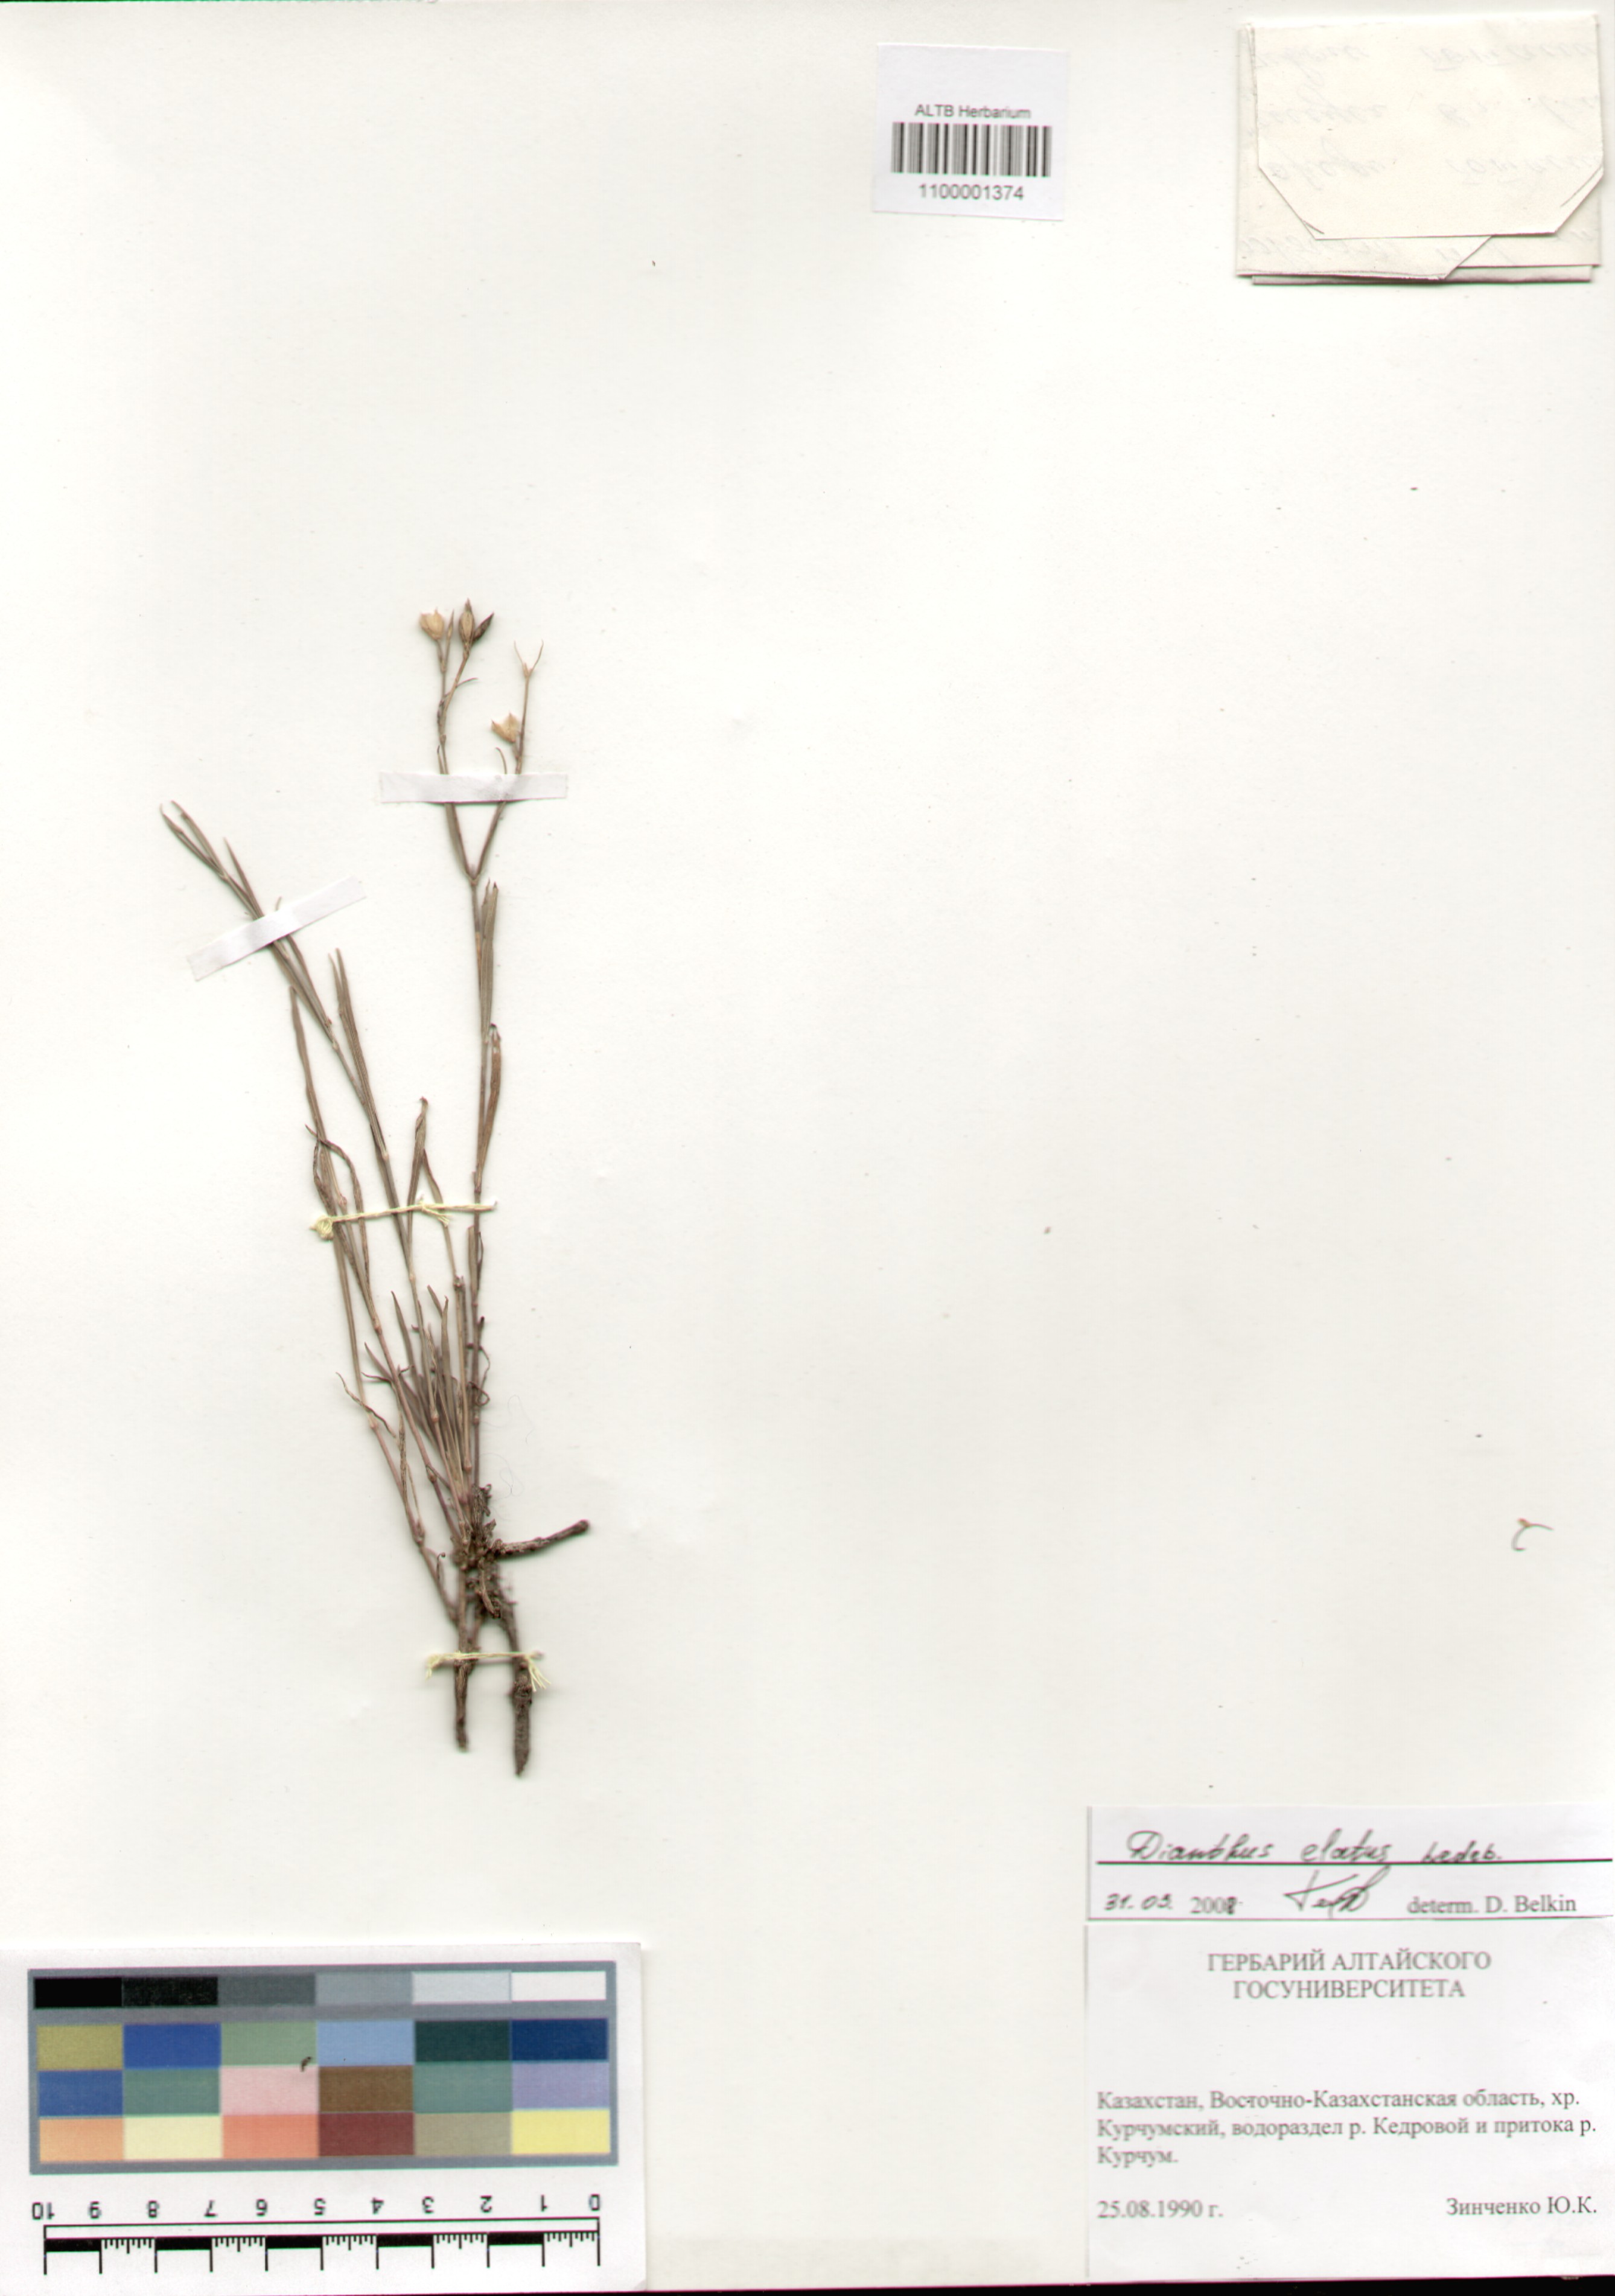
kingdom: Plantae
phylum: Tracheophyta
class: Magnoliopsida
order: Caryophyllales
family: Caryophyllaceae
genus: Dianthus
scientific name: Dianthus elatus
